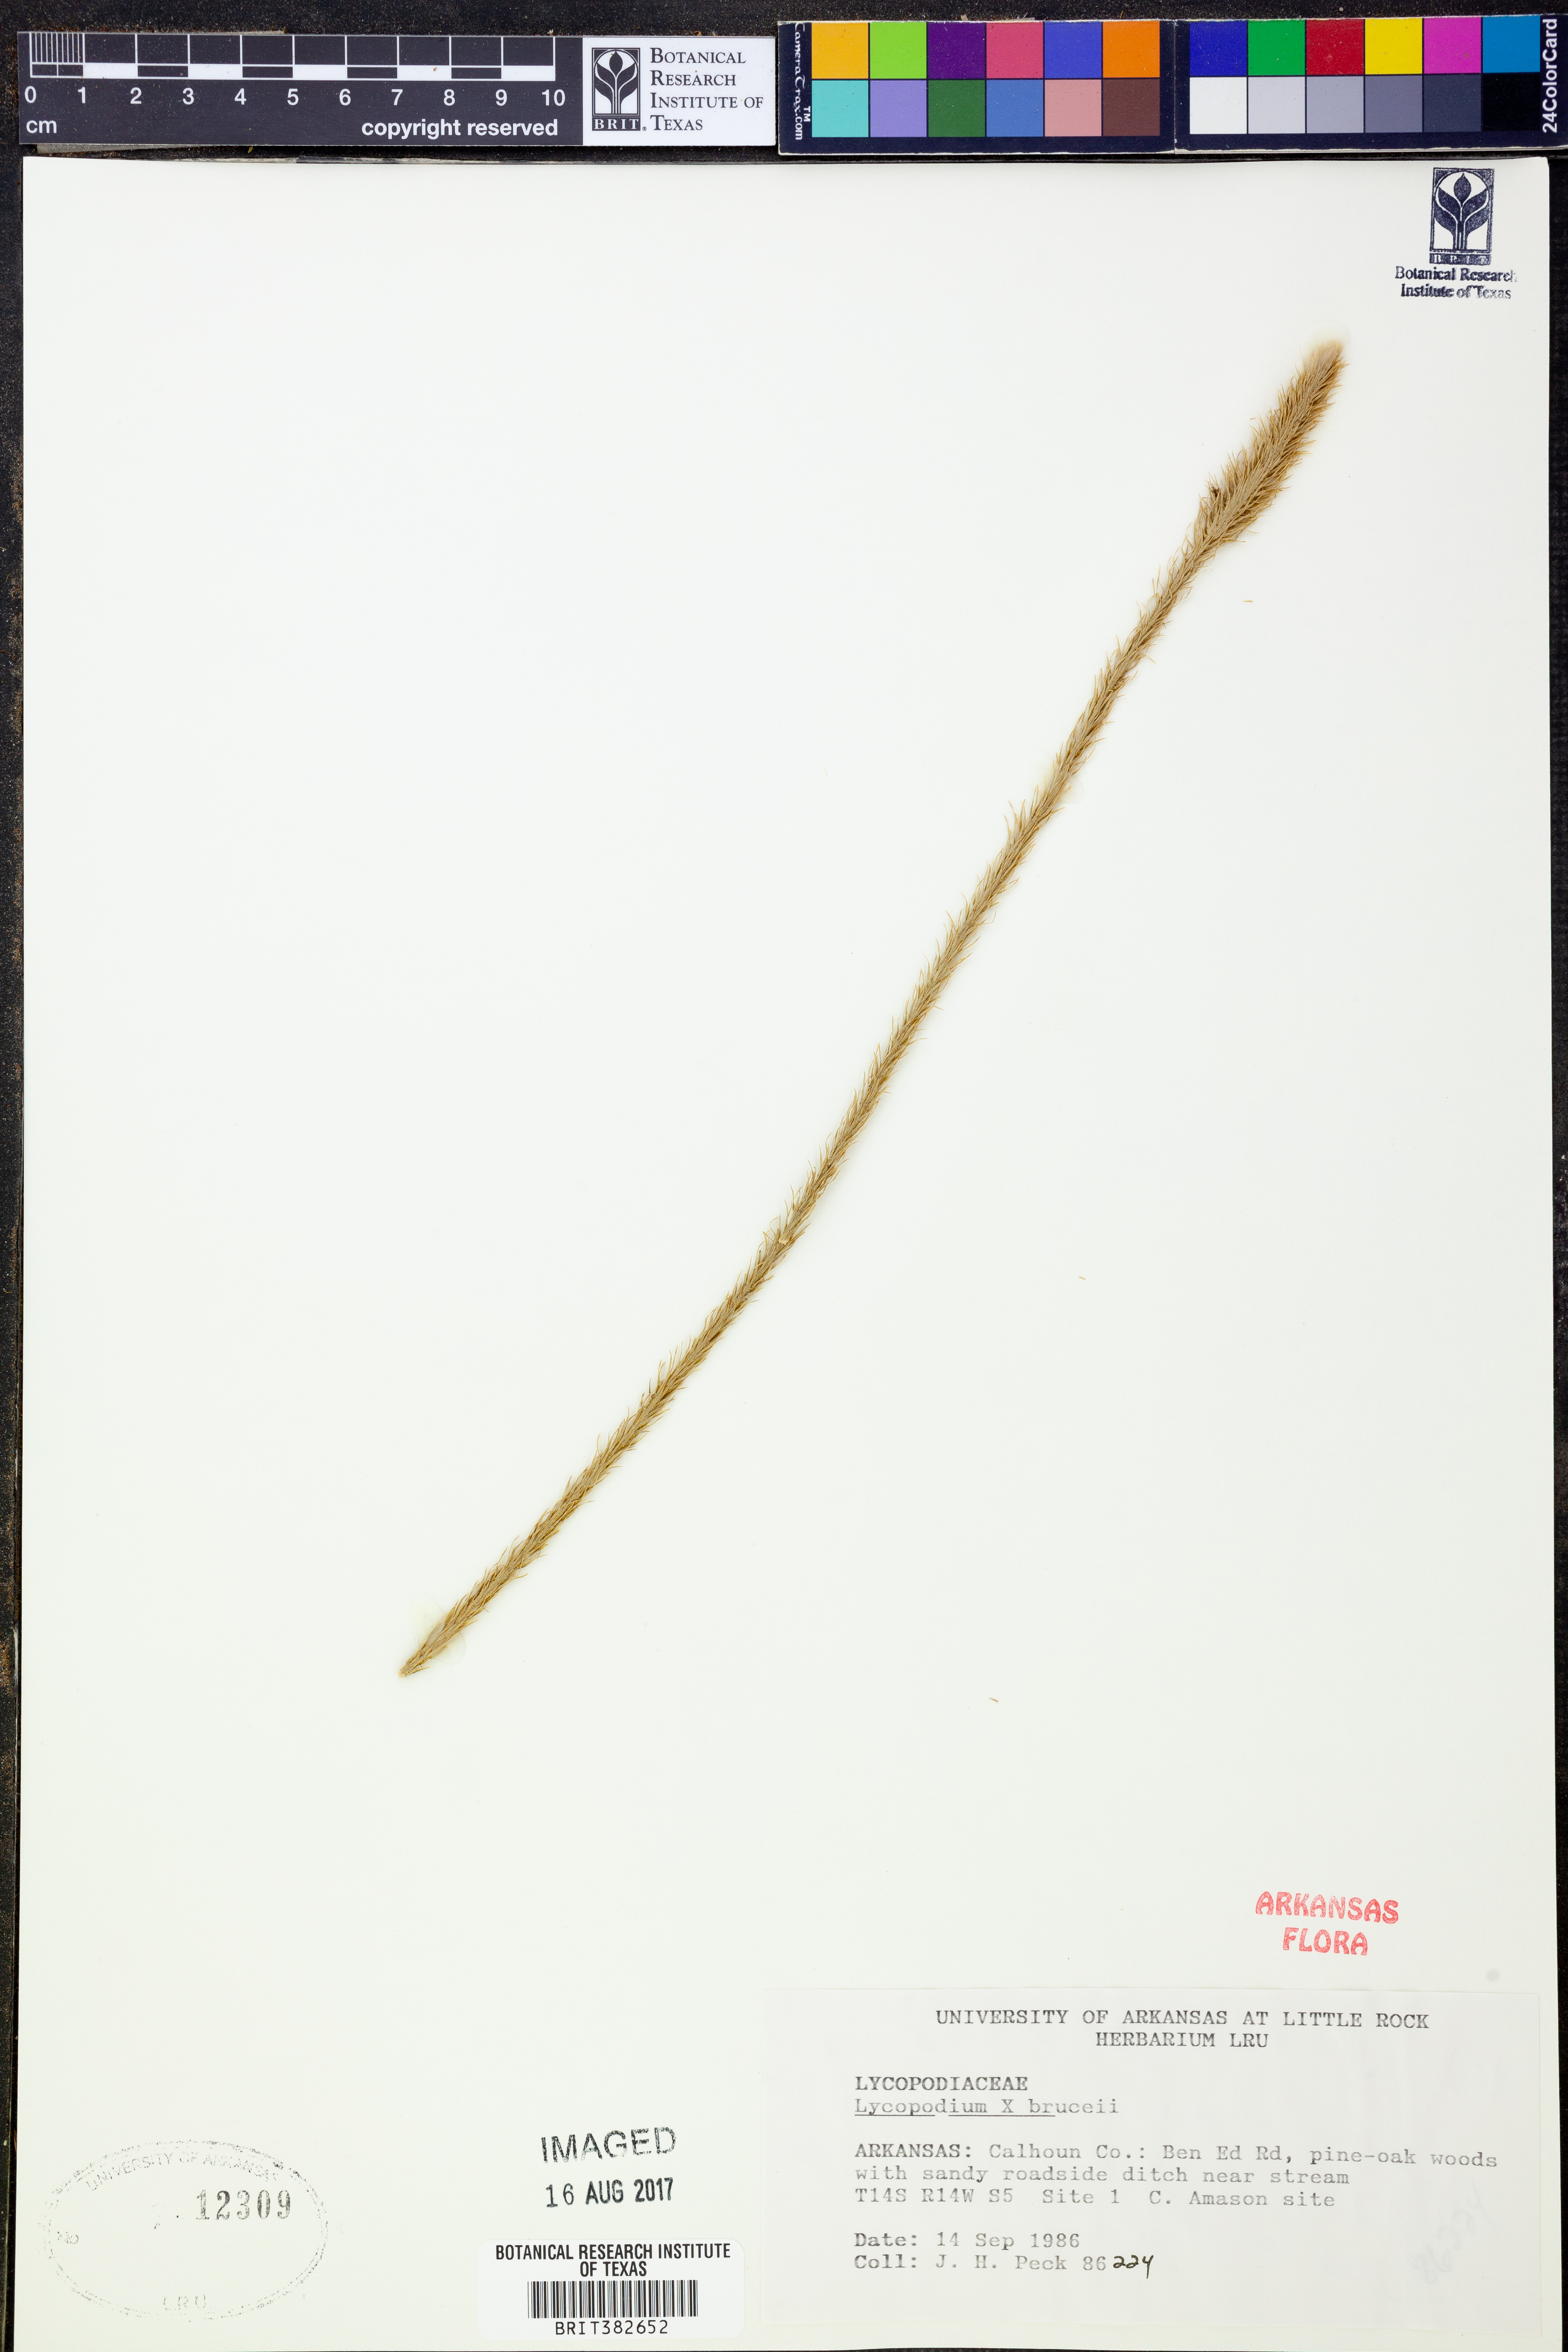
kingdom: Plantae
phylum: Tracheophyta
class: Lycopodiopsida
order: Lycopodiales
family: Lycopodiaceae
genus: Lycopodiella
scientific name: Lycopodiella brucei
